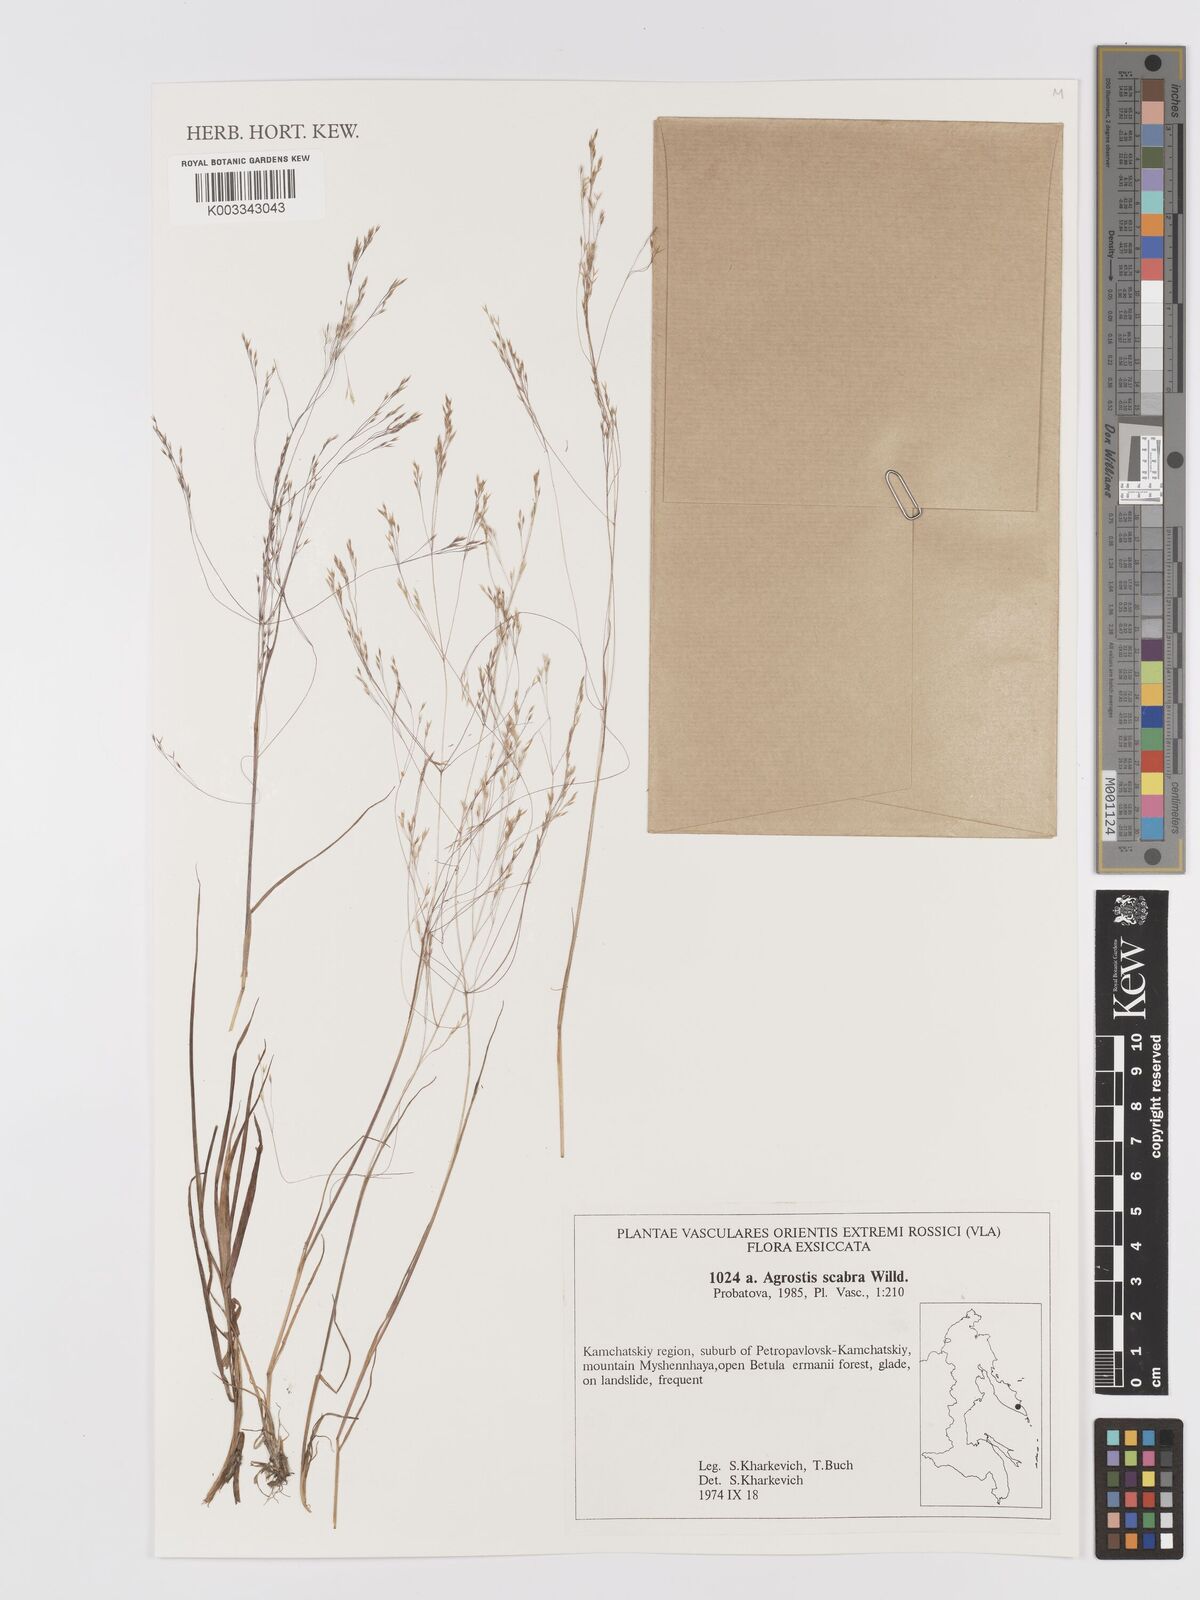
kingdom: Plantae
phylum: Tracheophyta
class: Liliopsida
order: Poales
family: Poaceae
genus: Agrostis
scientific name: Agrostis scabra
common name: Rough bent
